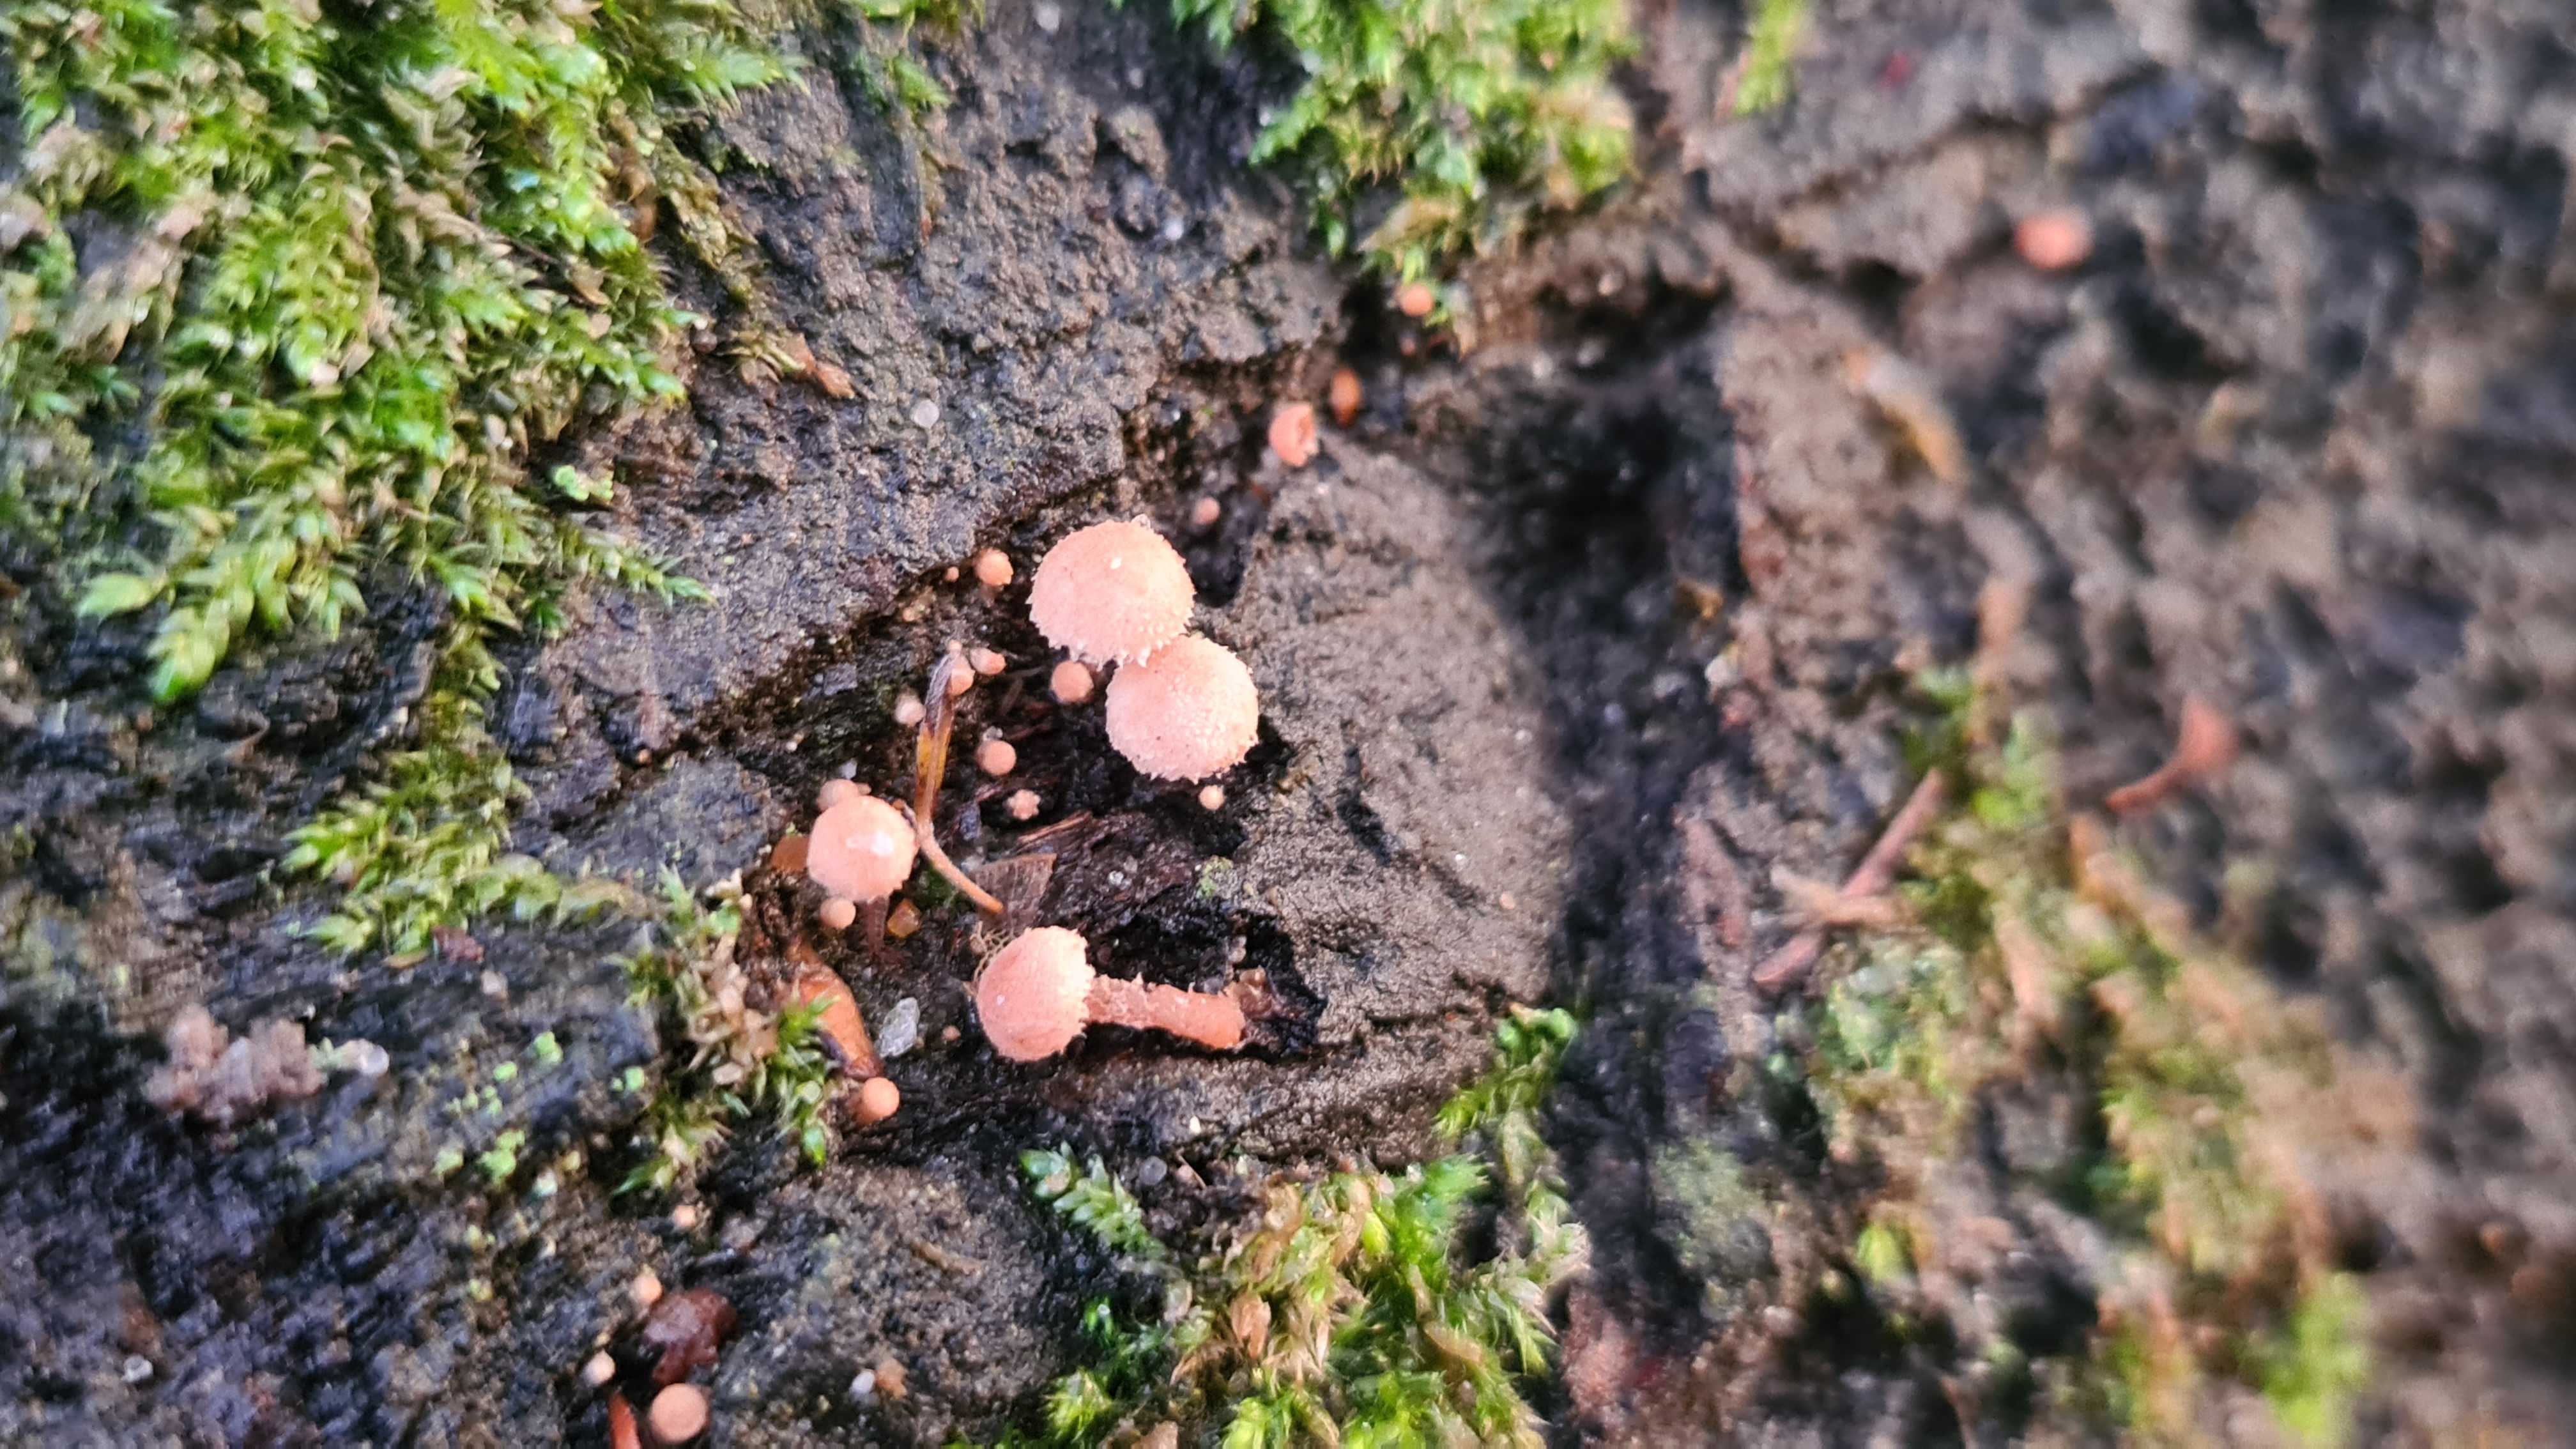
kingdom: Fungi
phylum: Basidiomycota
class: Agaricomycetes
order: Agaricales
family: Tubariaceae
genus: Flammulaster
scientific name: Flammulaster
